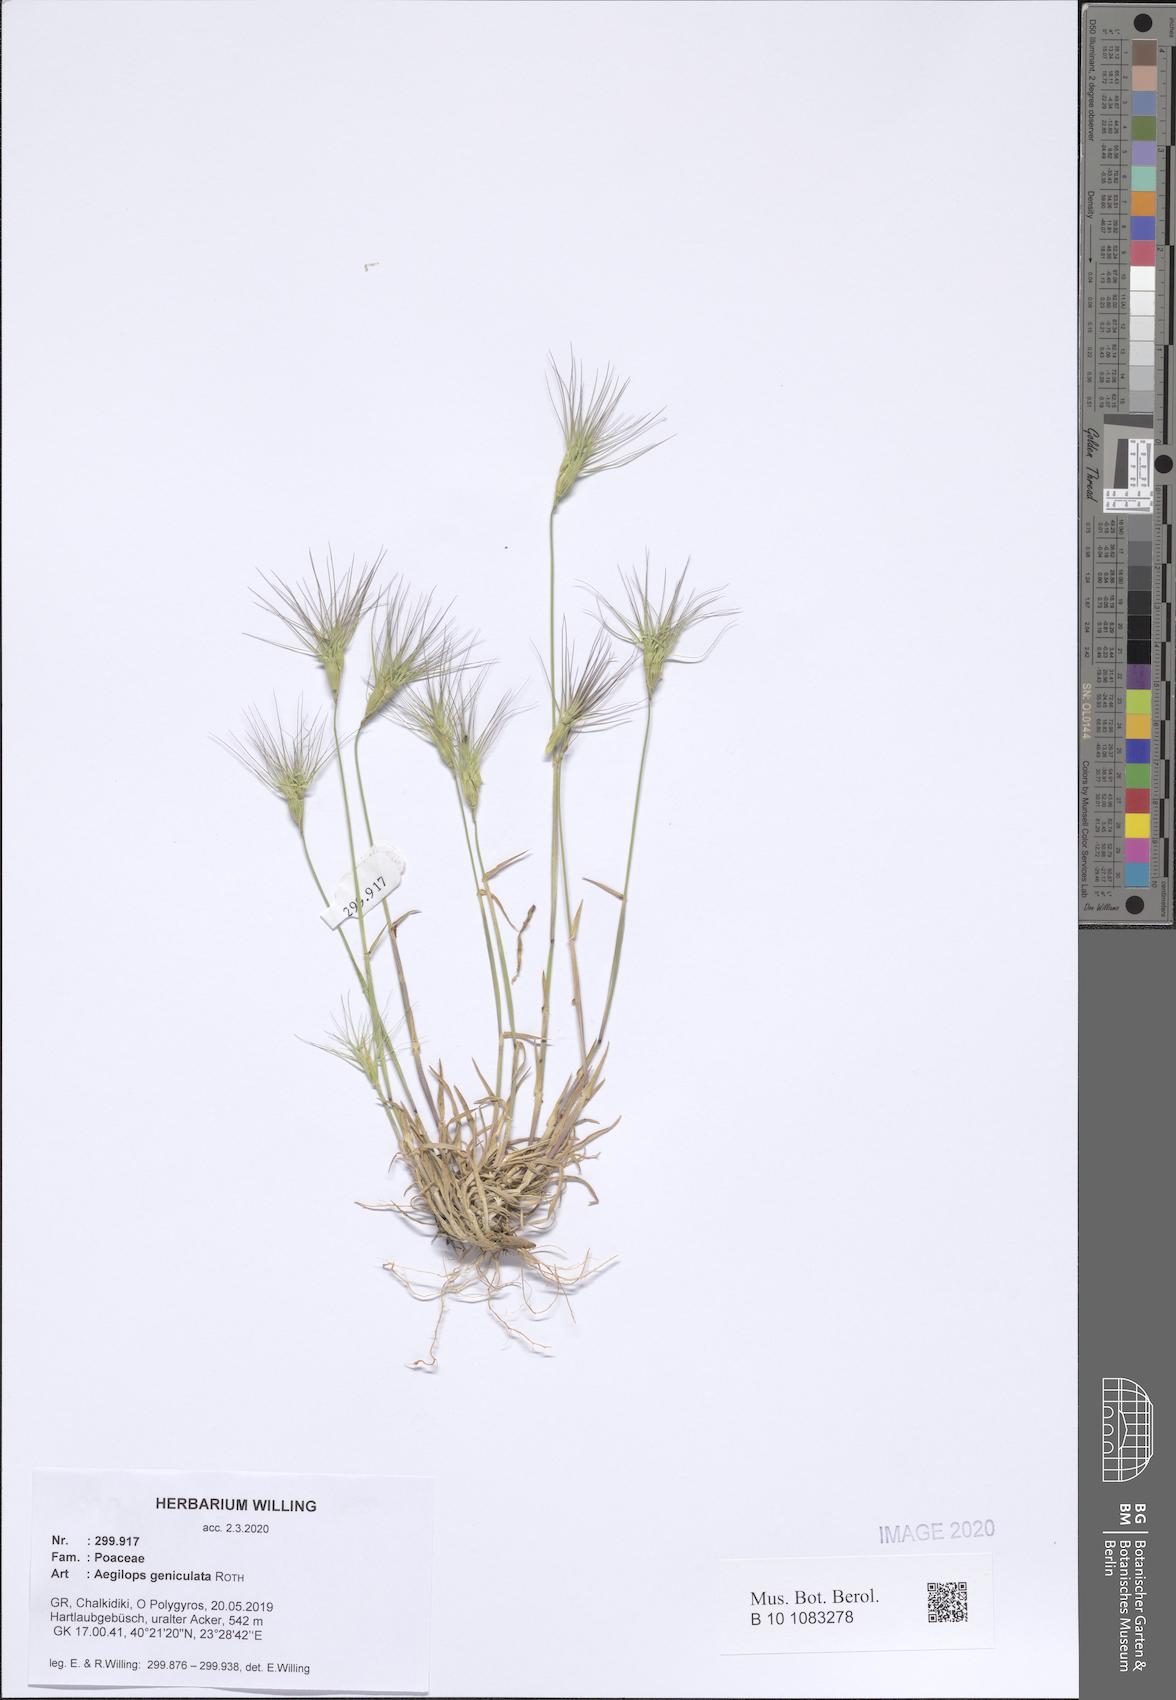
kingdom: Plantae
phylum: Tracheophyta
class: Liliopsida
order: Poales
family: Poaceae
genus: Aegilops
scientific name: Aegilops geniculata
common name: Ovate goat grass
